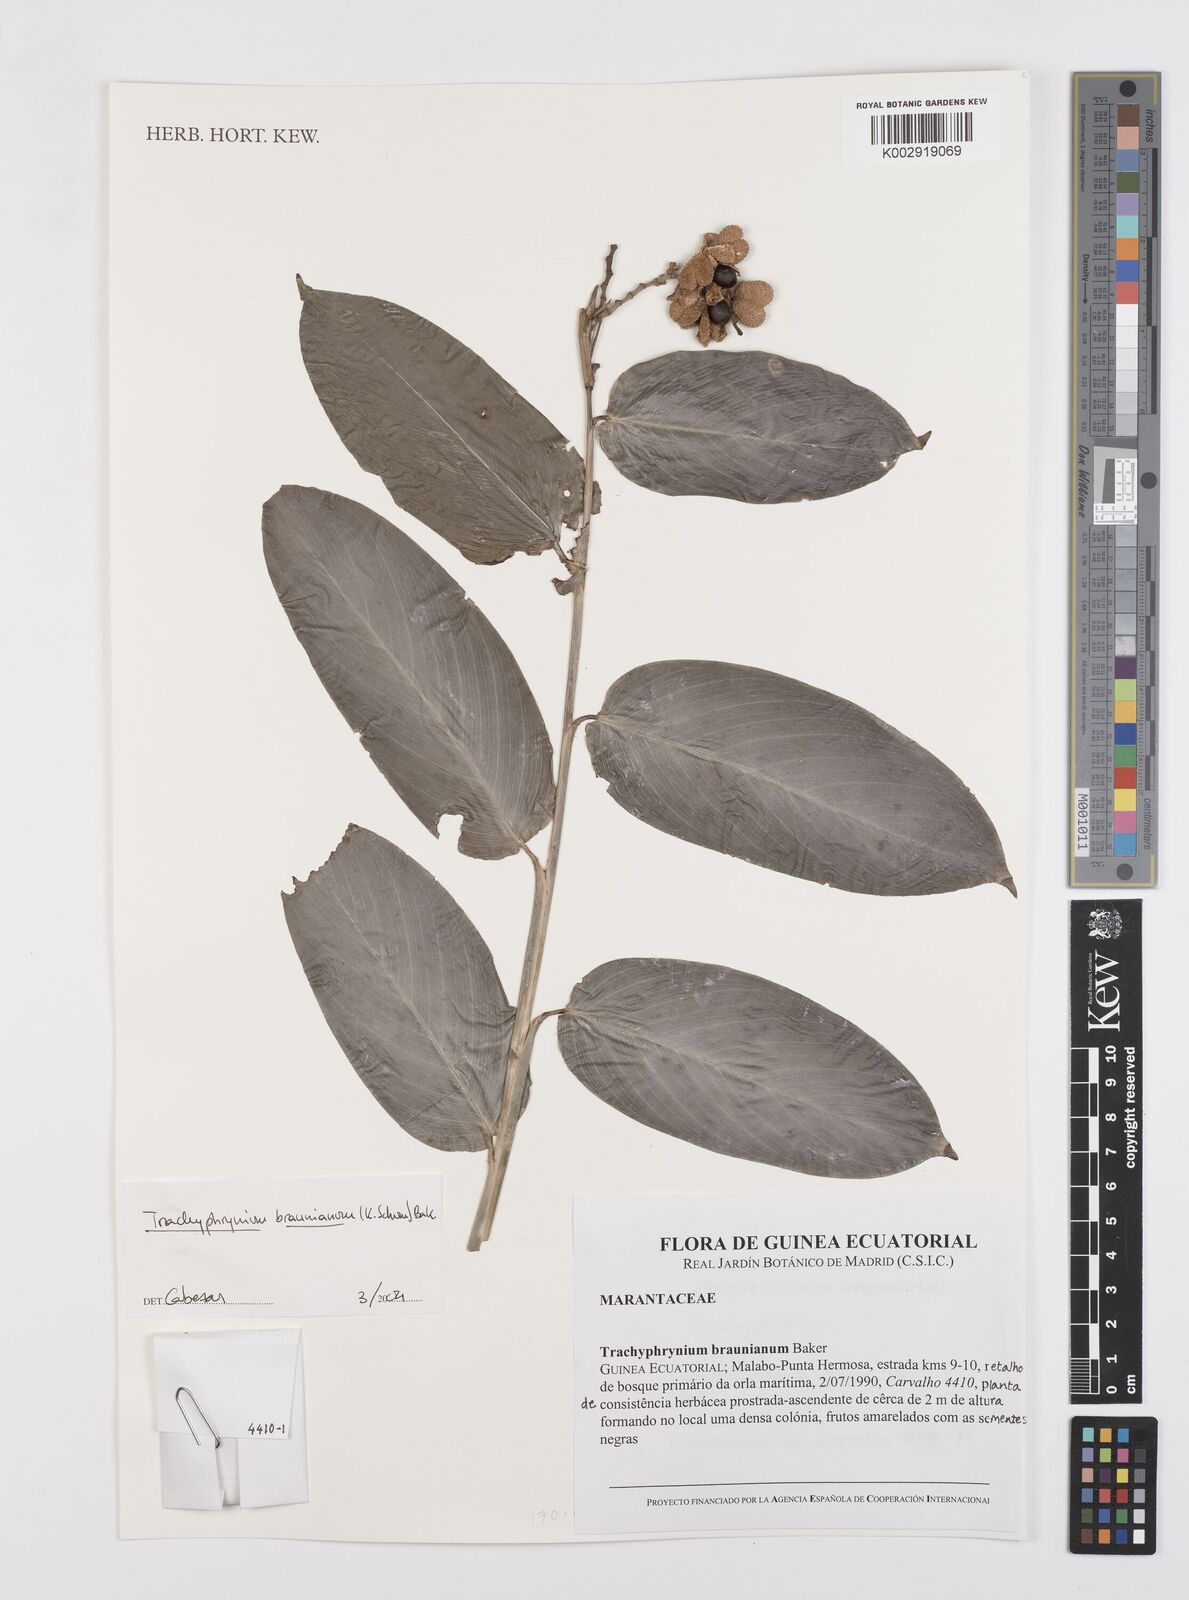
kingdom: Plantae
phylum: Tracheophyta
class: Liliopsida
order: Zingiberales
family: Marantaceae
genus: Trachyphrynium
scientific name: Trachyphrynium braunianum
